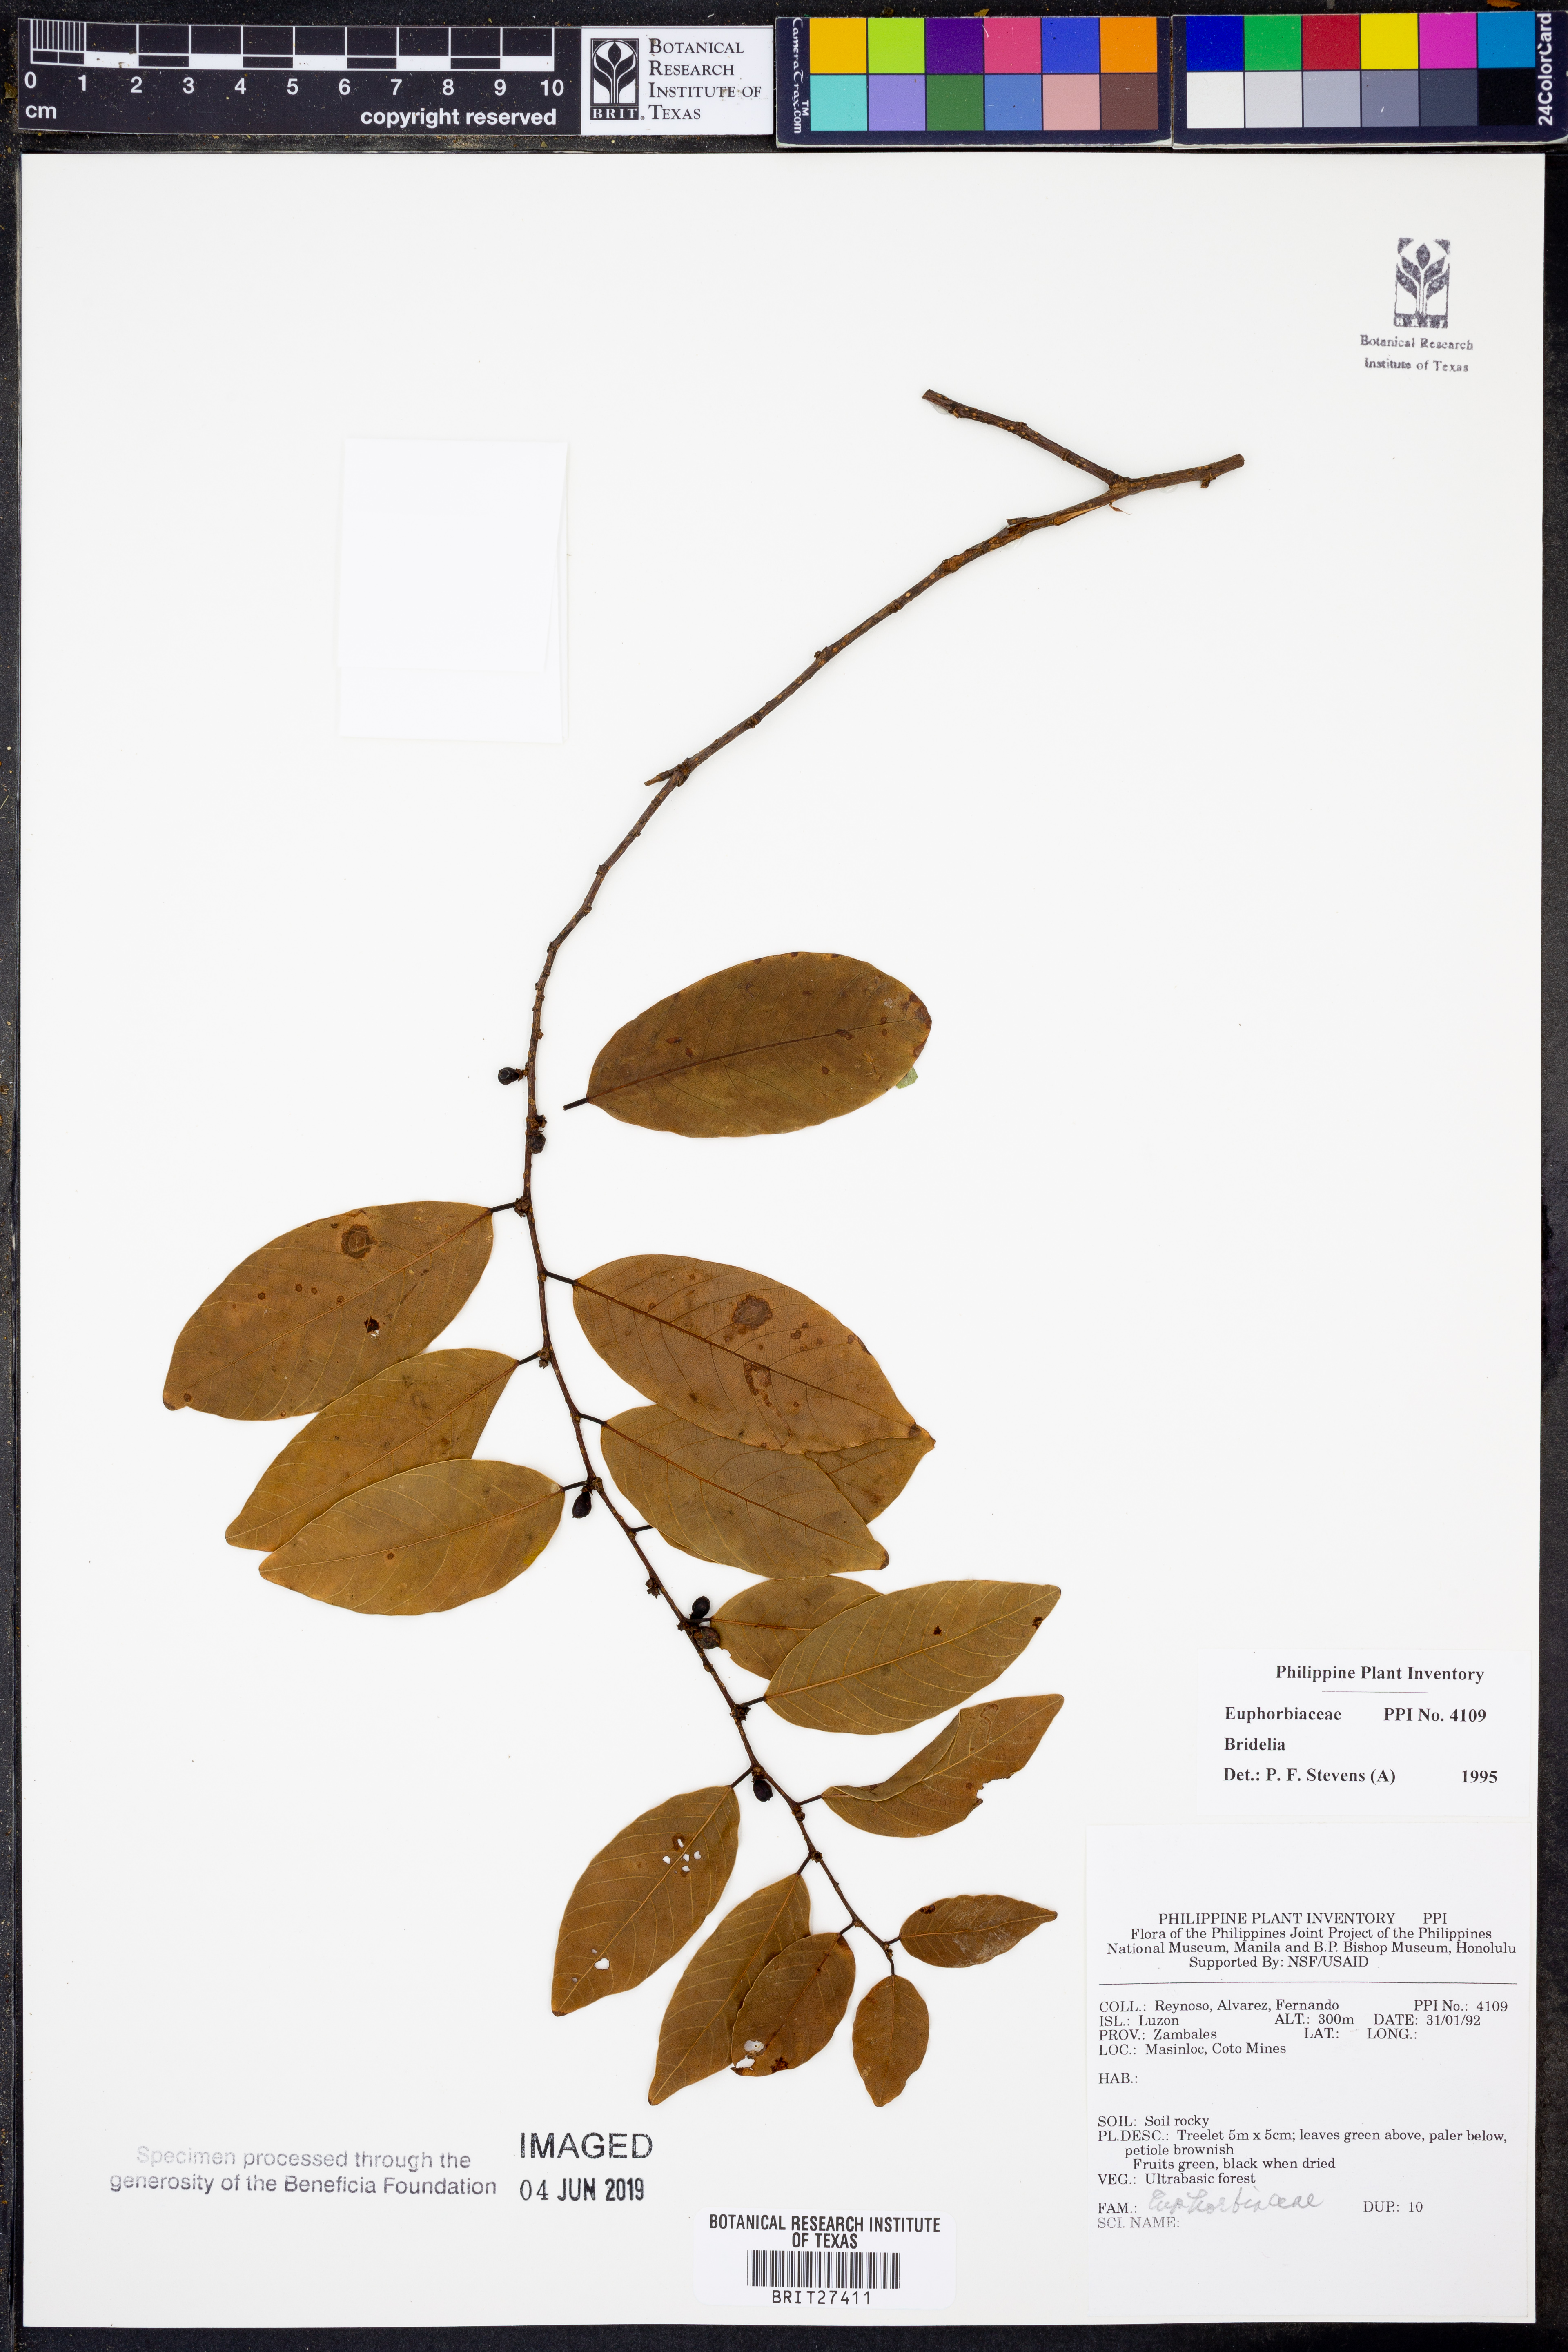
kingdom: Plantae
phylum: Tracheophyta
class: Magnoliopsida
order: Malpighiales
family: Phyllanthaceae
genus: Bridelia
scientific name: Bridelia
